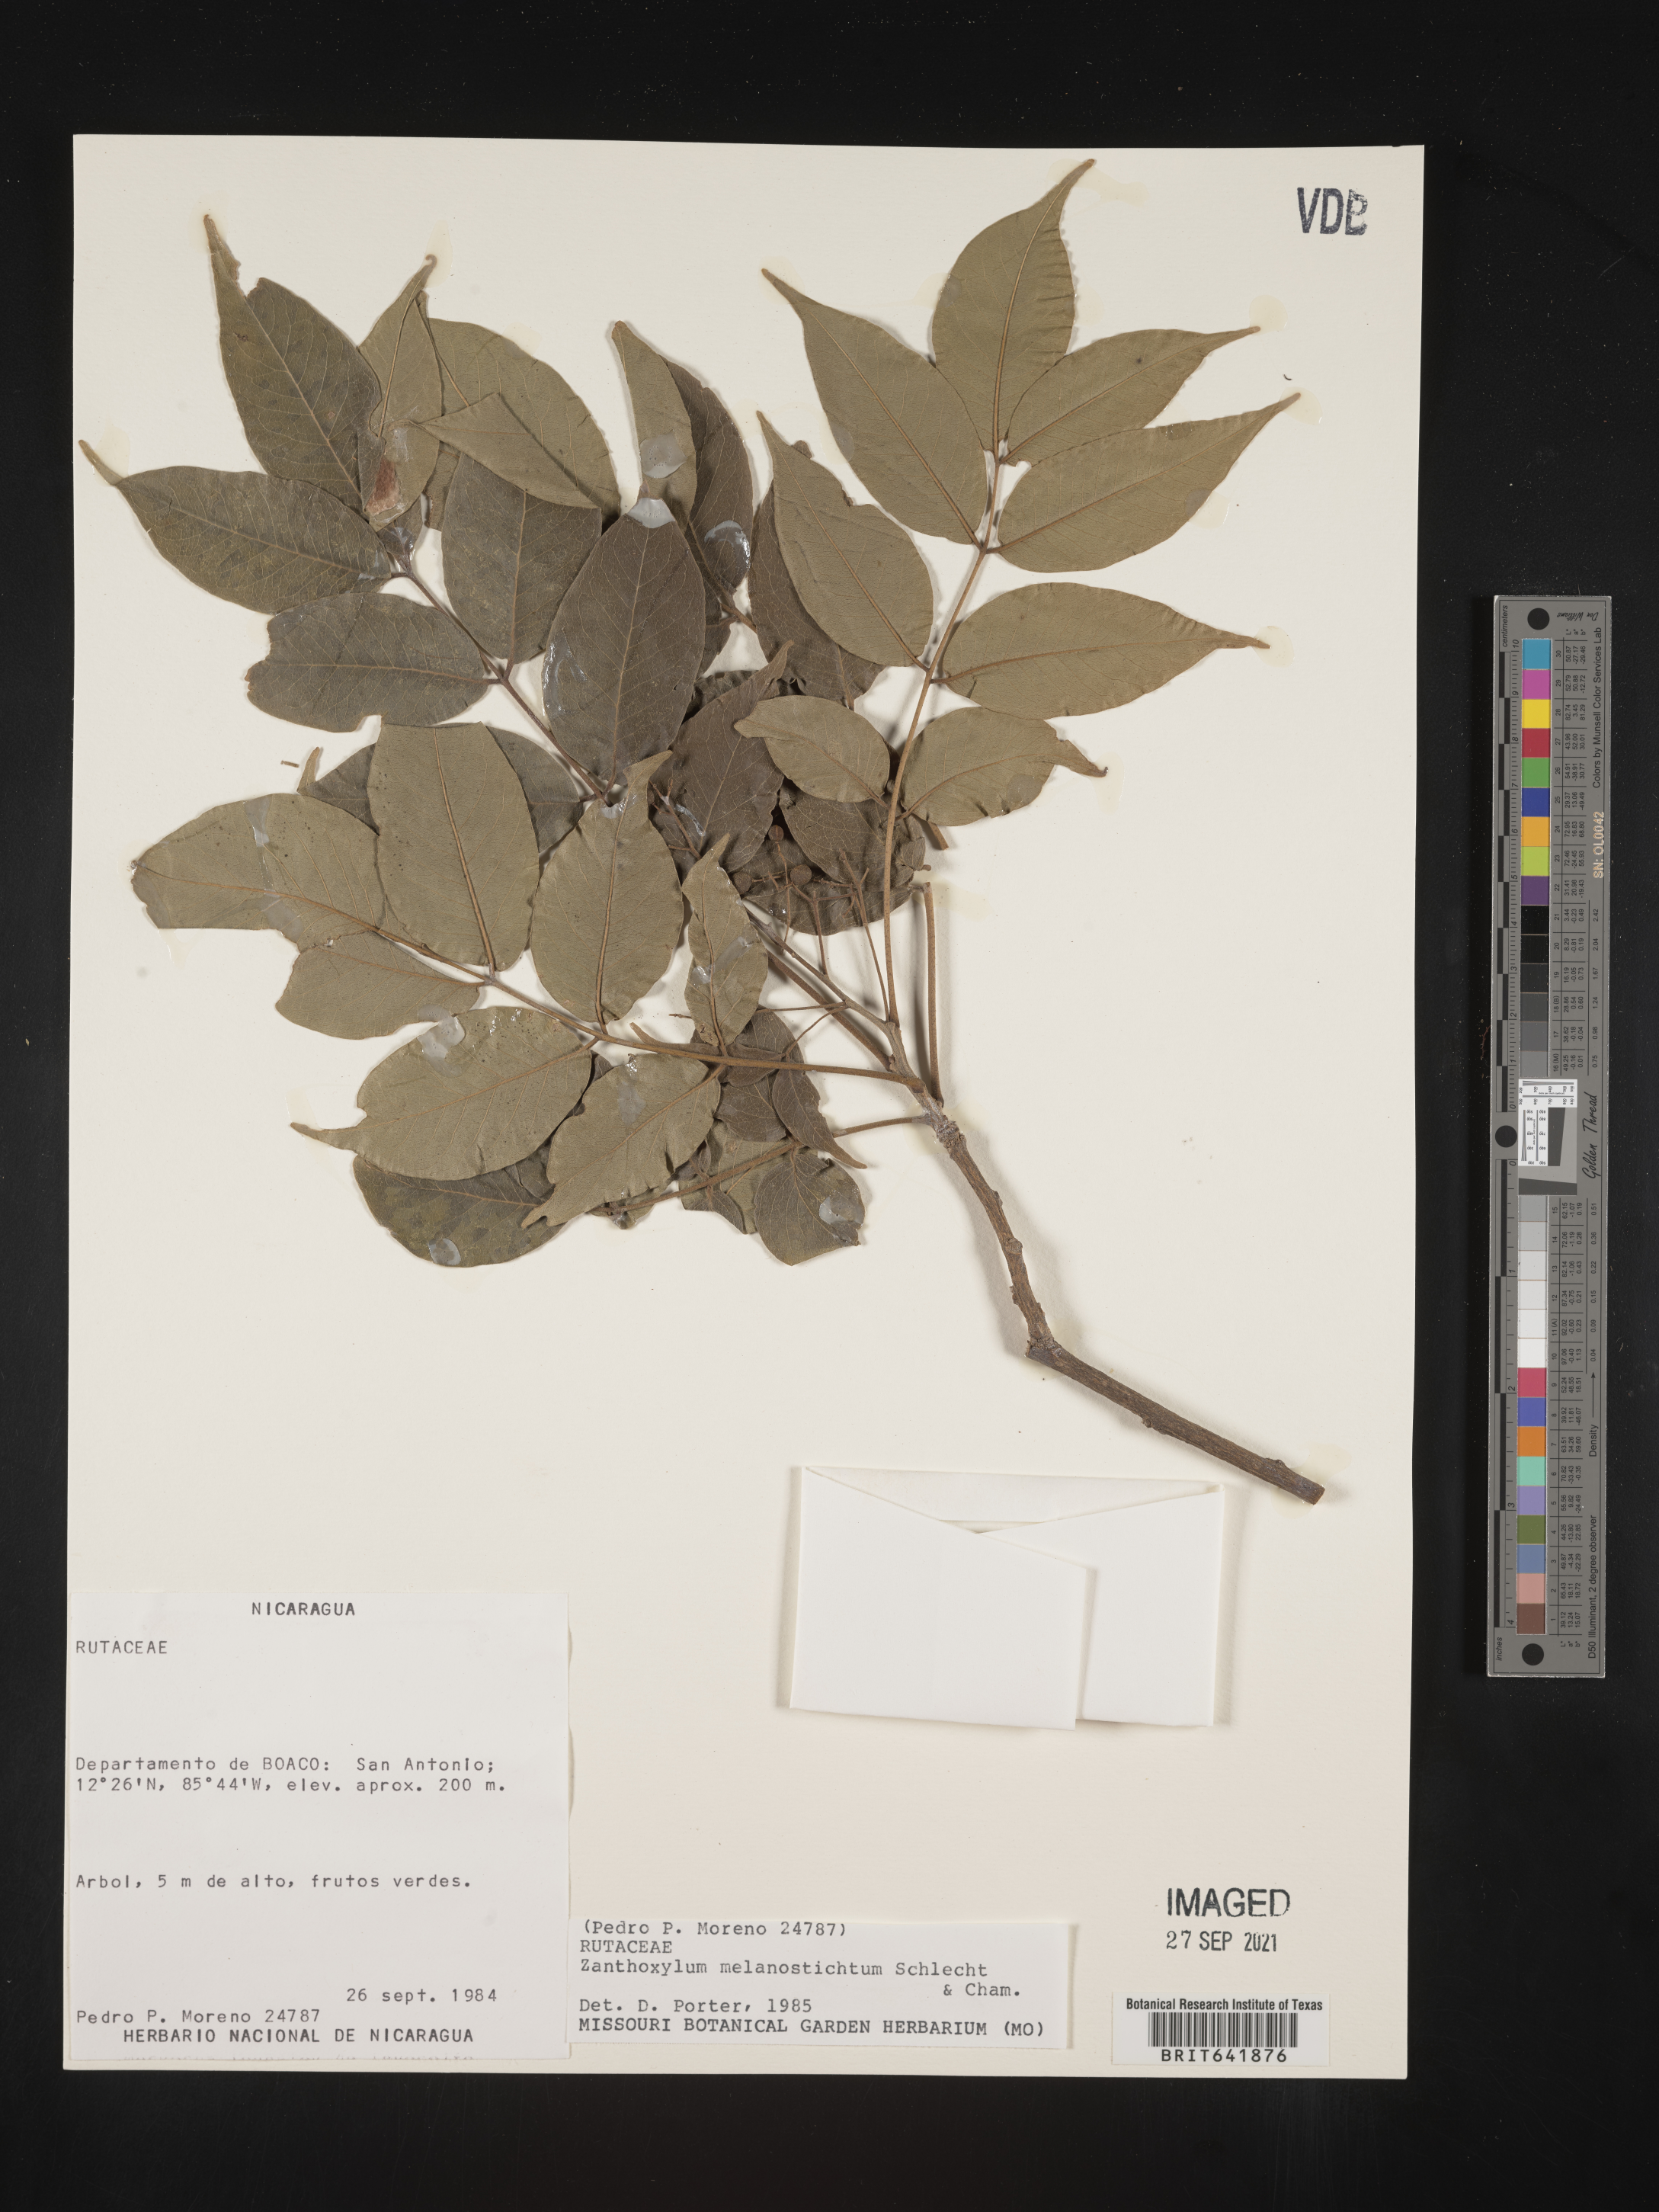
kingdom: Plantae
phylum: Tracheophyta
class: Magnoliopsida
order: Sapindales
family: Rutaceae
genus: Zanthoxylum
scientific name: Zanthoxylum
